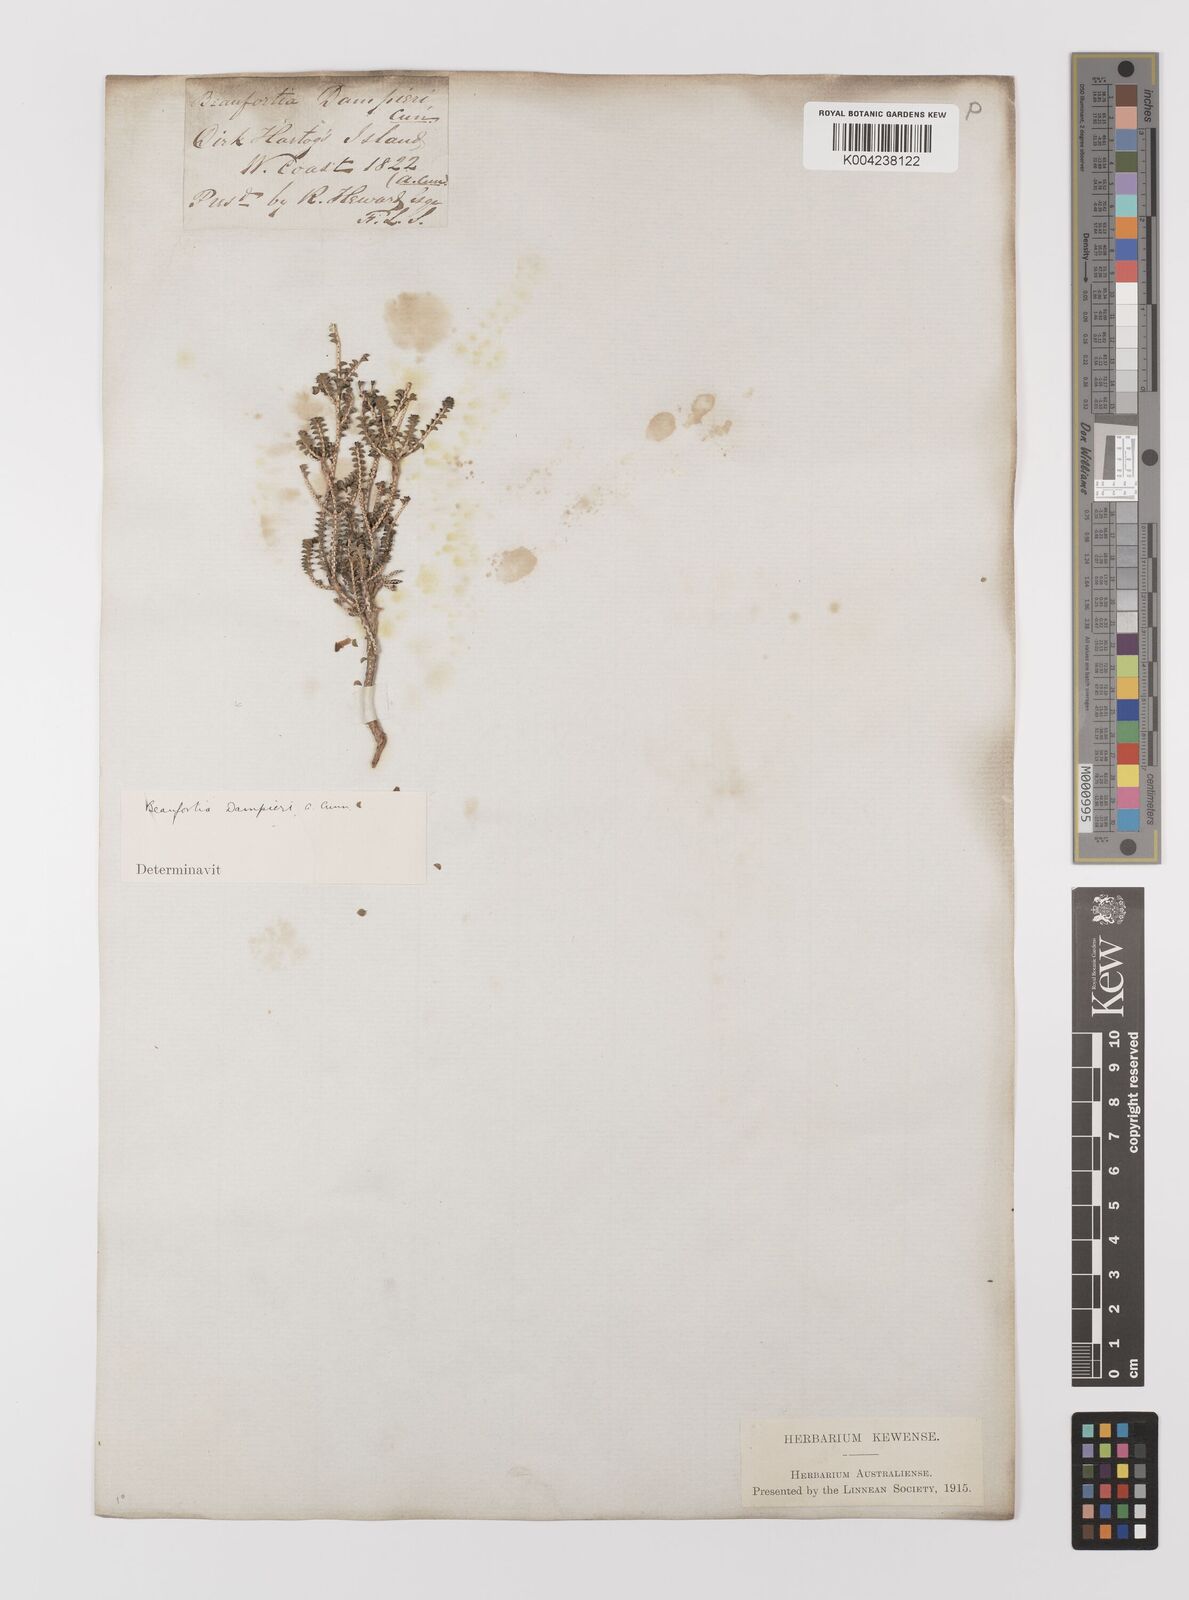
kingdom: Plantae
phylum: Tracheophyta
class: Magnoliopsida
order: Myrtales
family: Myrtaceae
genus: Melaleuca
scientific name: Melaleuca sprengelioides
